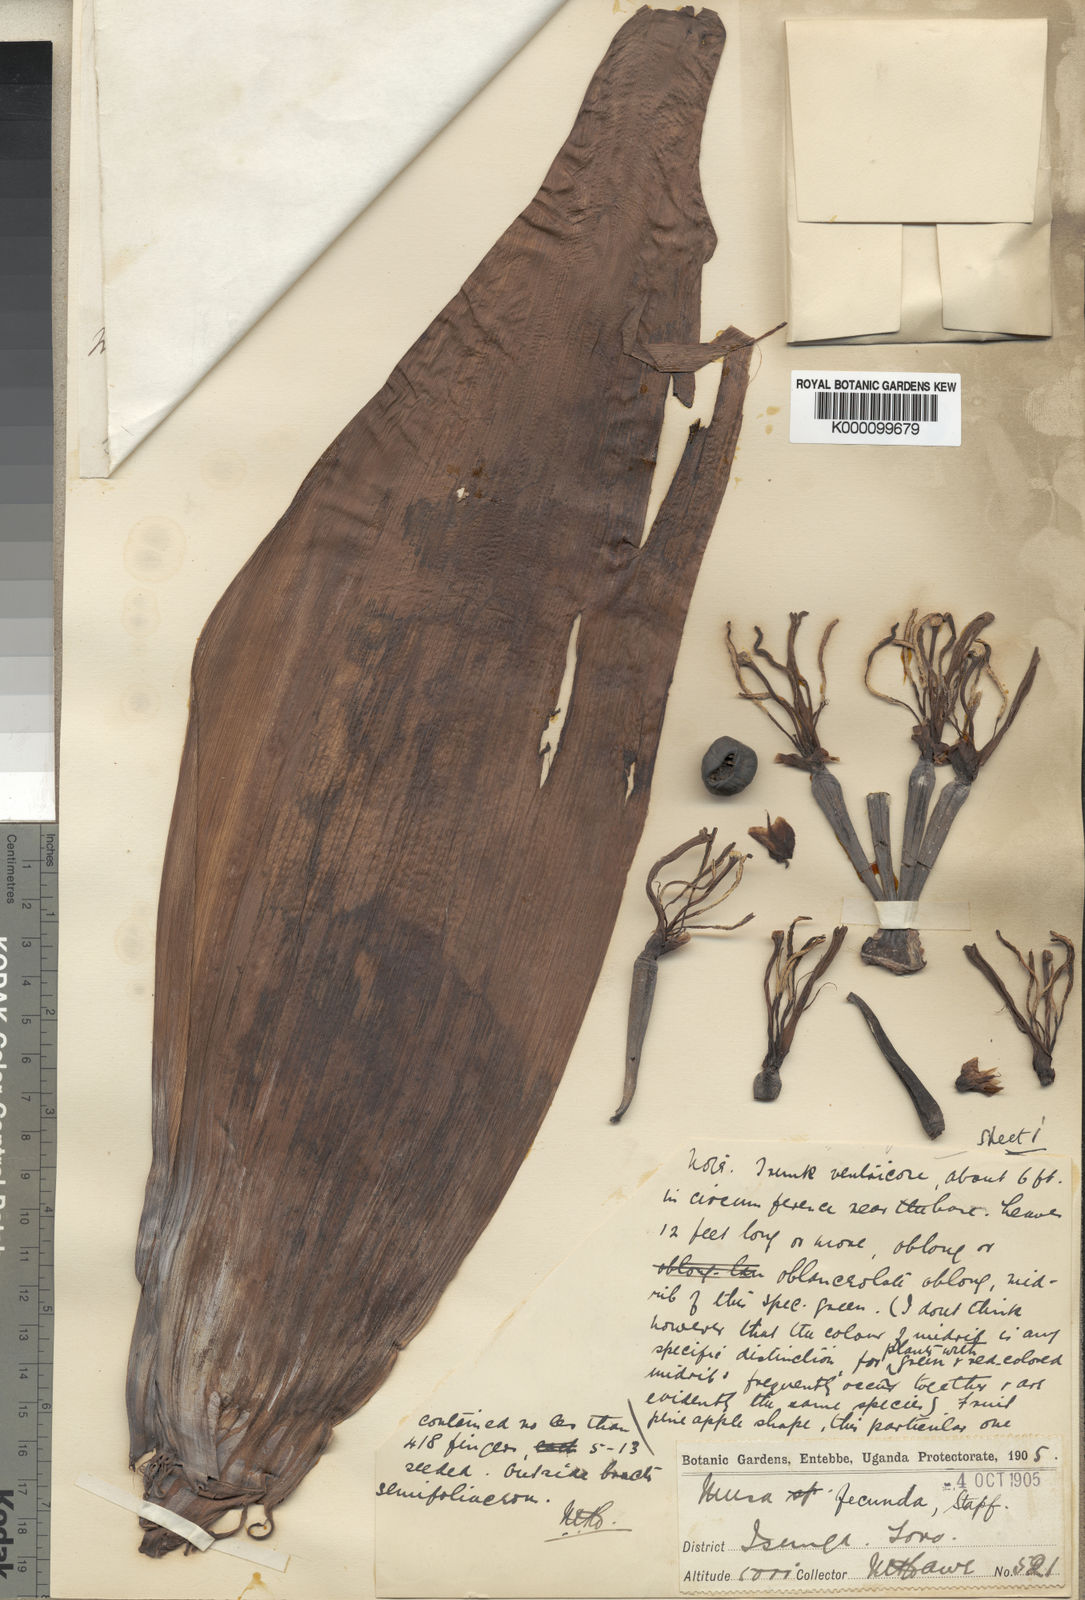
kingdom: Plantae
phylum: Tracheophyta
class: Liliopsida
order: Zingiberales
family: Musaceae
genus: Ensete
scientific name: Ensete ventricosum
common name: Abyssinian banana
